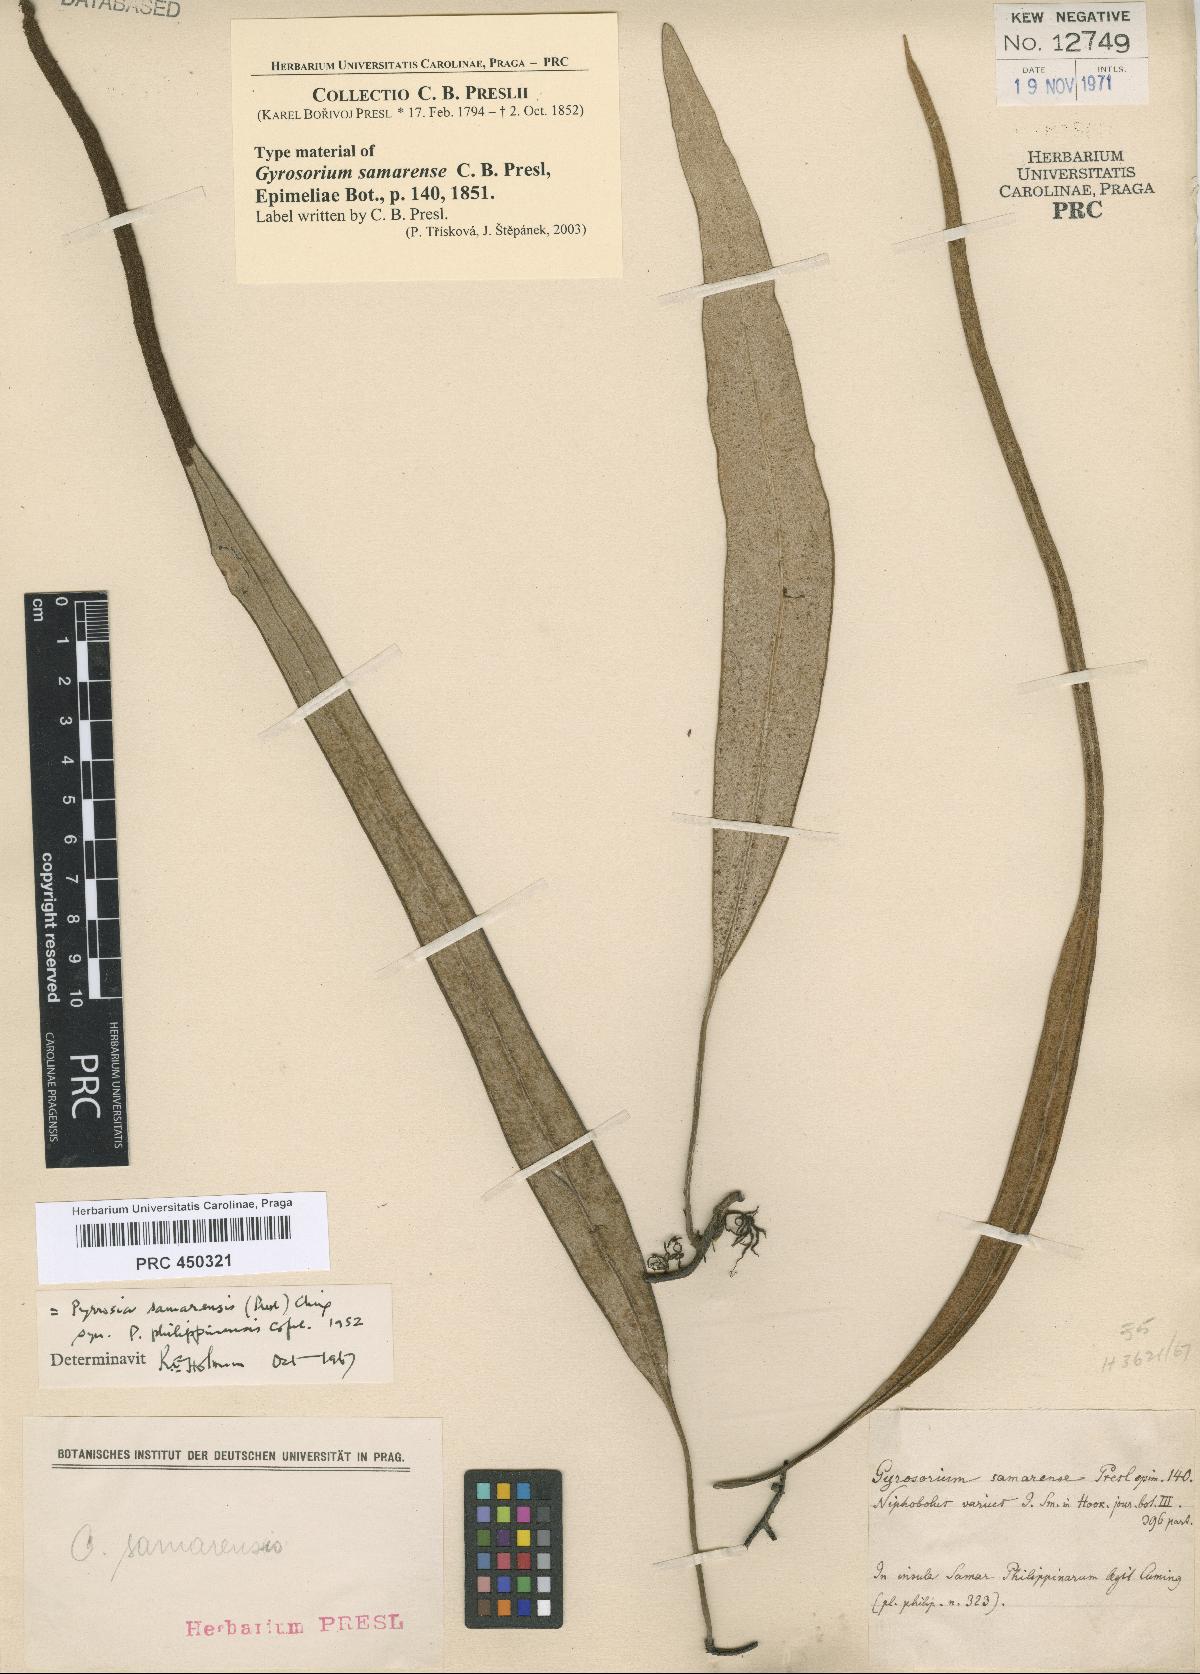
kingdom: Plantae
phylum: Tracheophyta
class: Polypodiopsida
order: Polypodiales
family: Polypodiaceae
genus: Pyrrosia
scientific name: Pyrrosia samarensis
